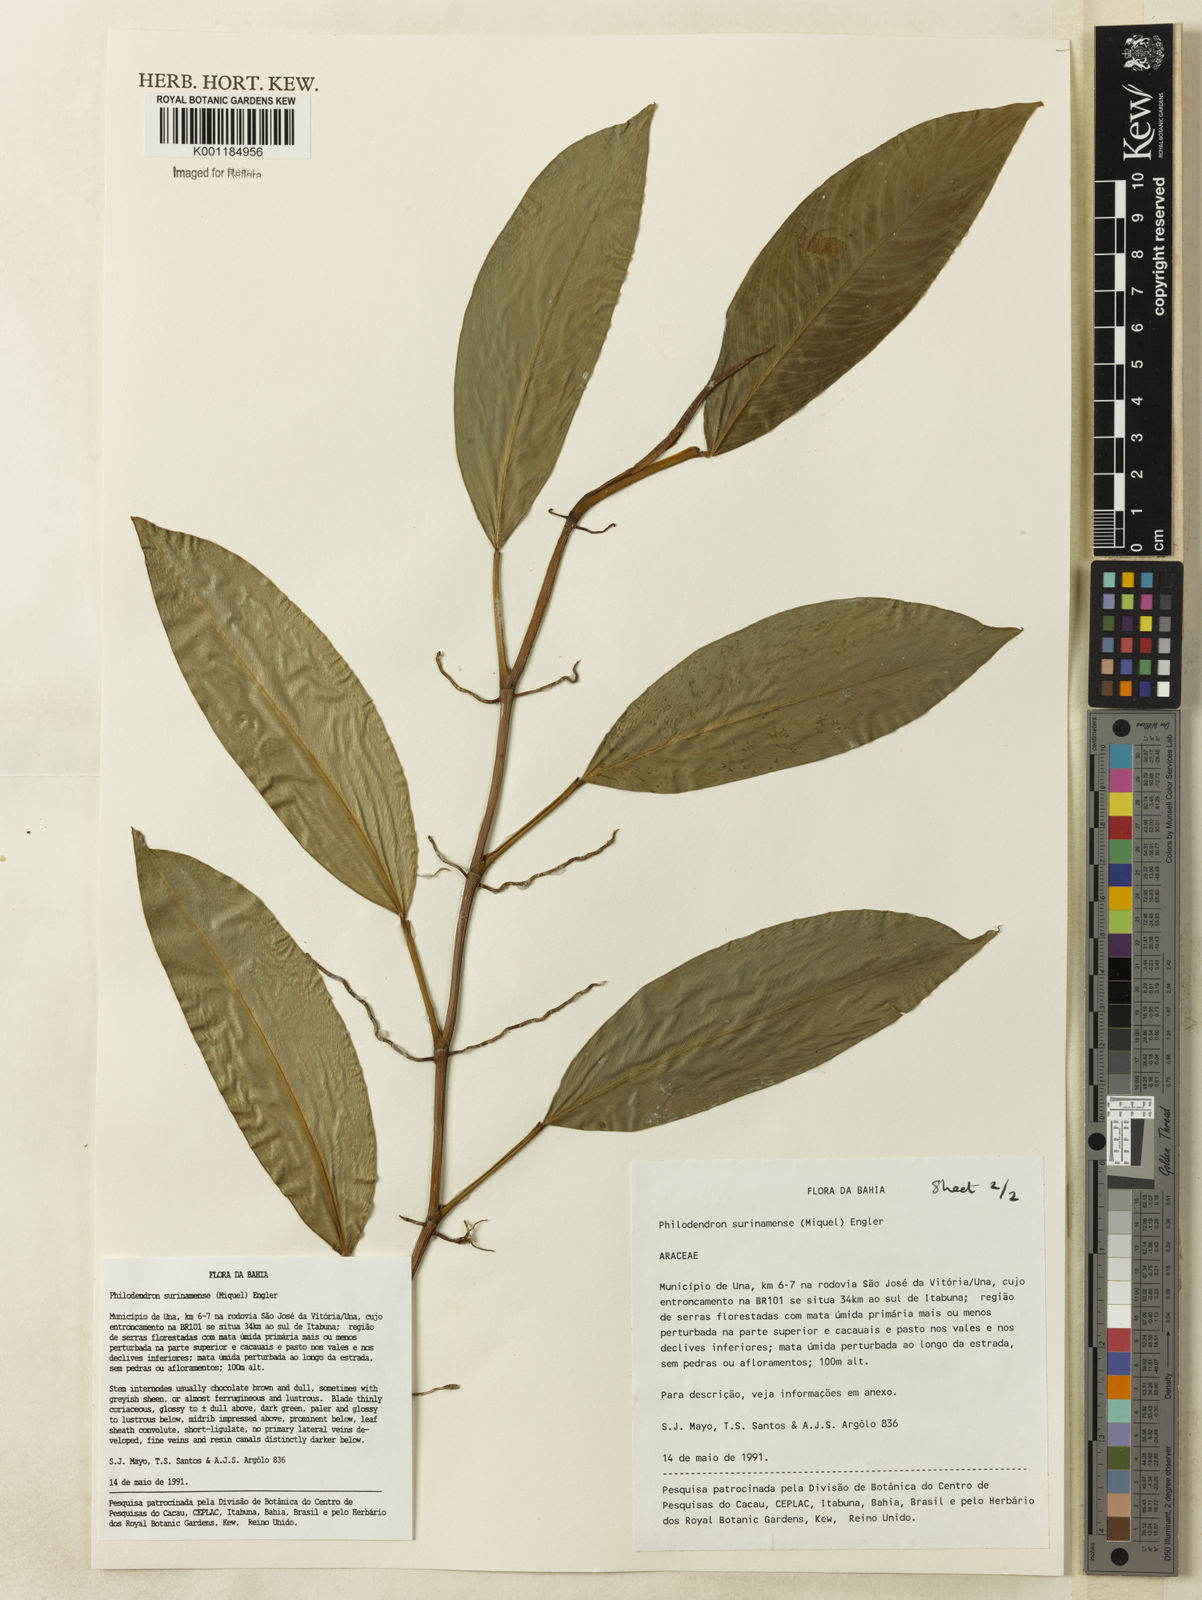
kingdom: Plantae
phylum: Tracheophyta
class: Liliopsida
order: Alismatales
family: Araceae
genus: Philodendron
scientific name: Philodendron surinamense
